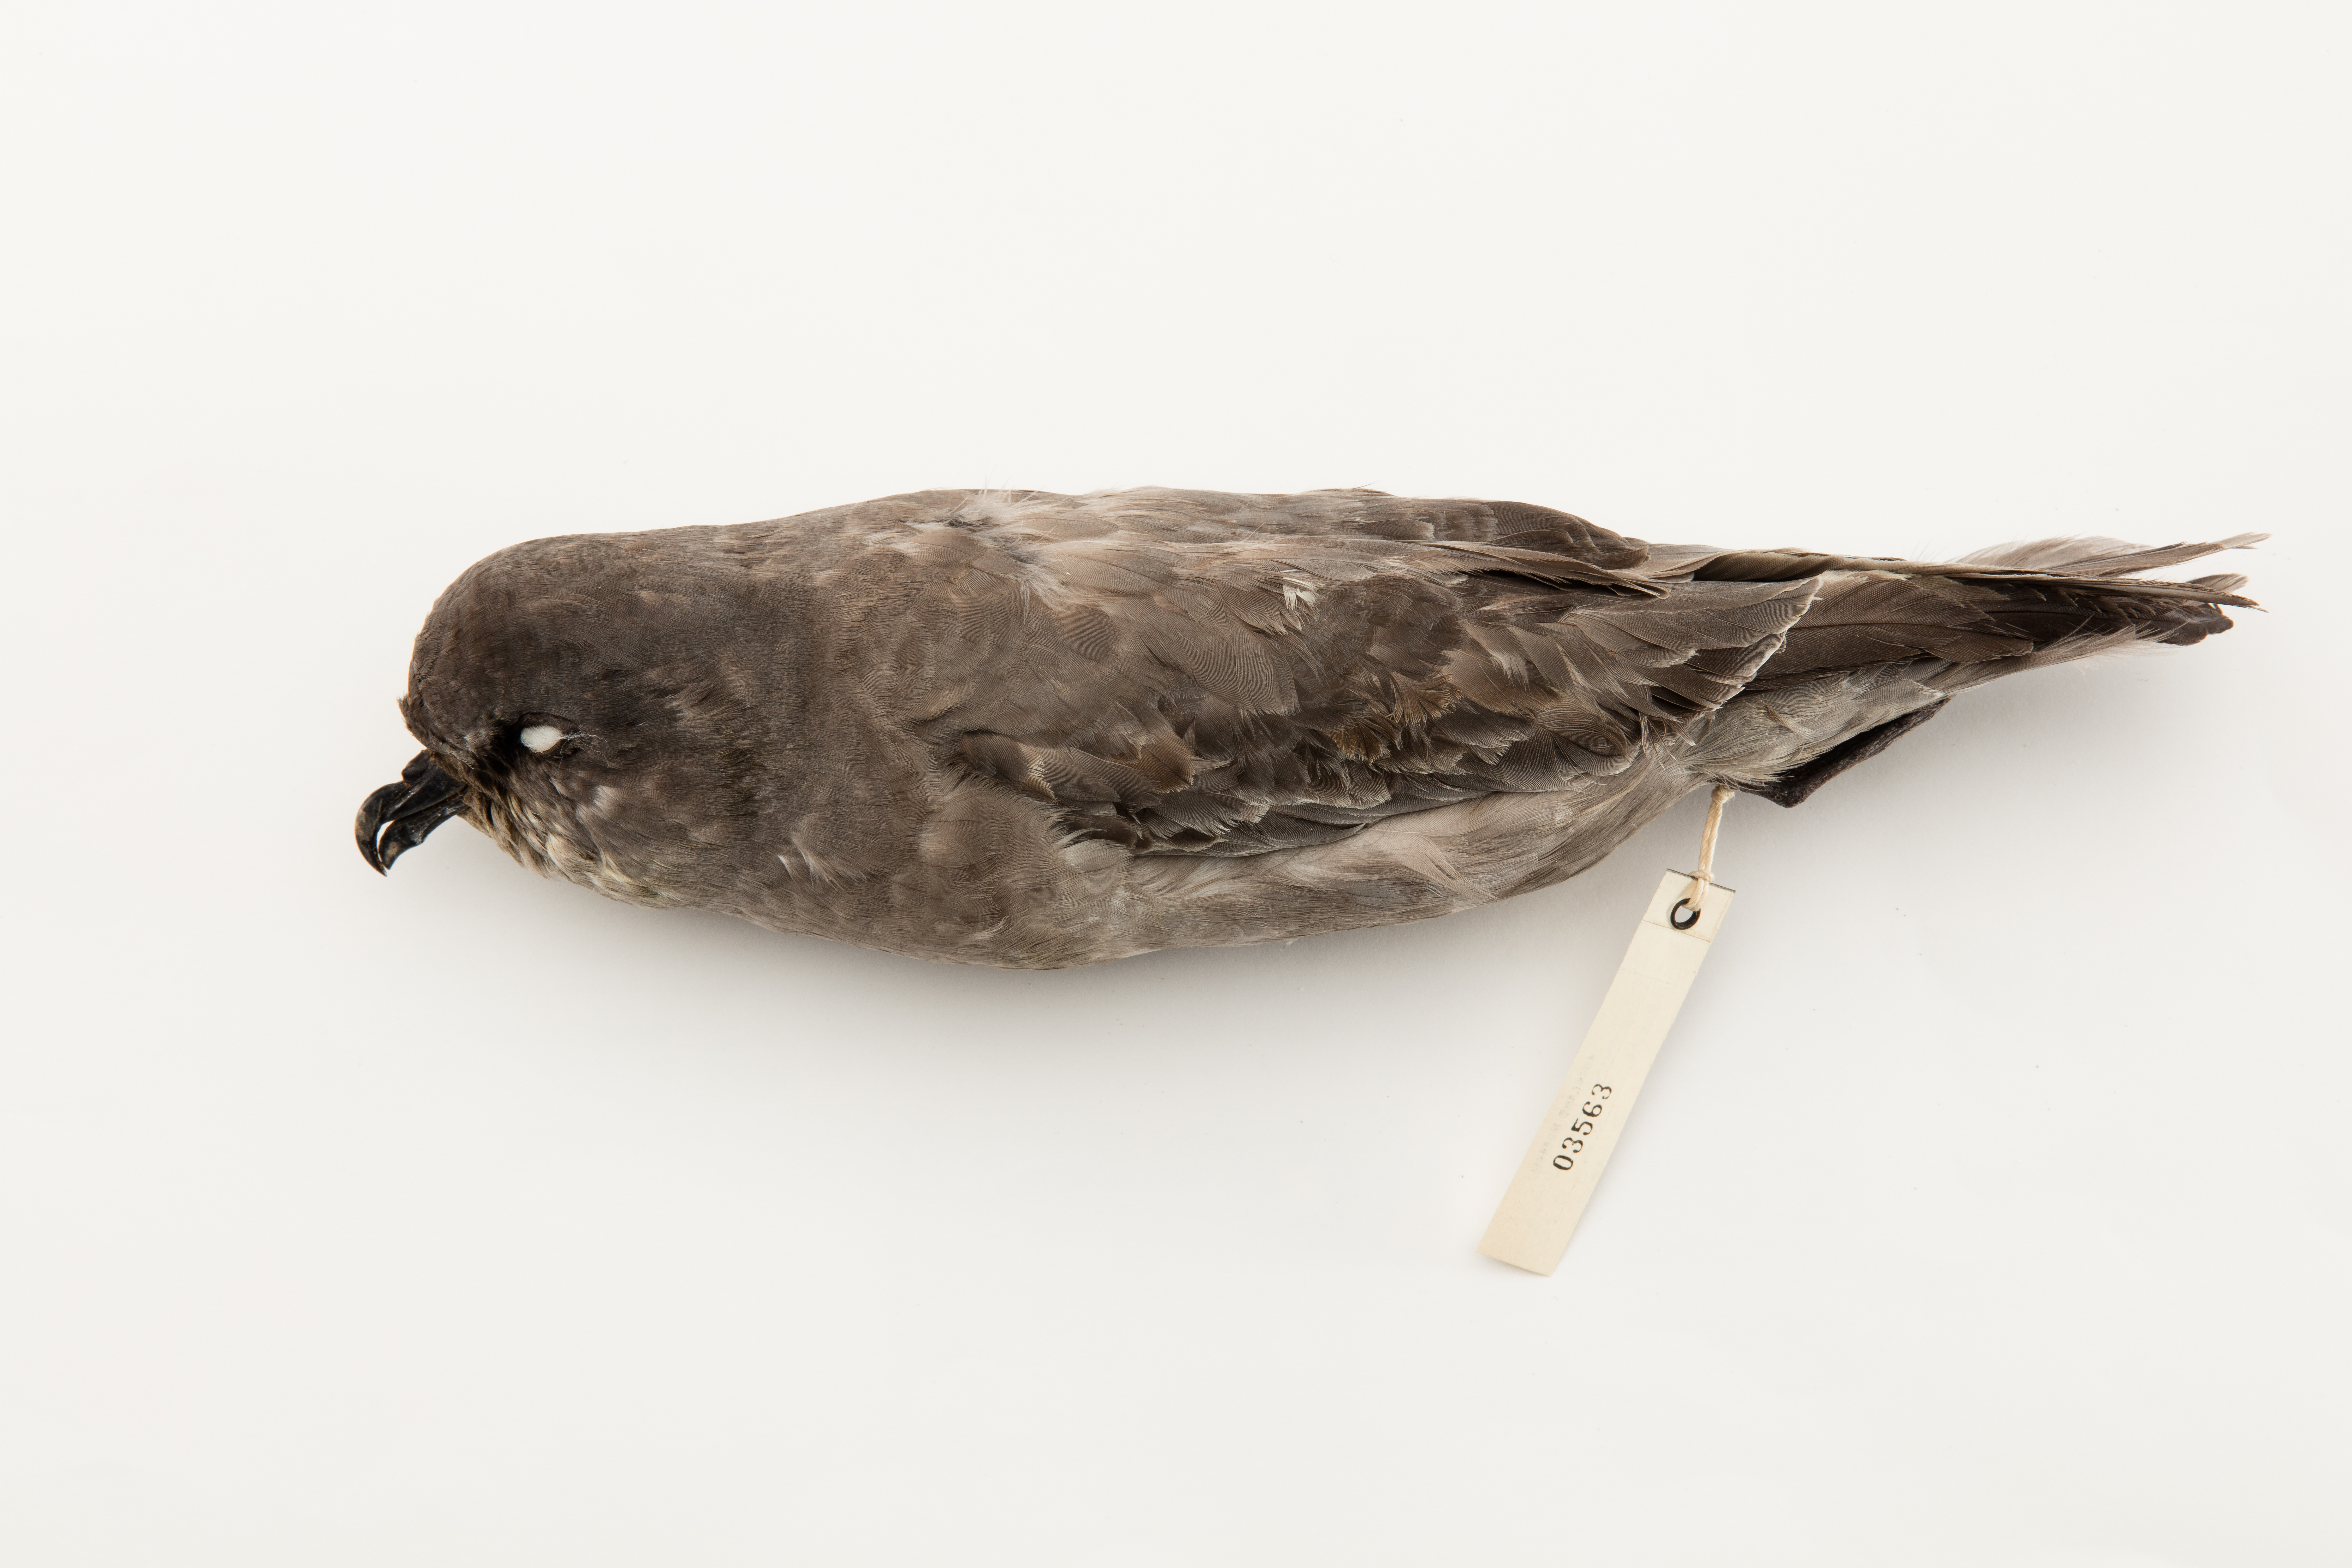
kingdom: Animalia
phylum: Chordata
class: Aves
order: Procellariiformes
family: Procellariidae
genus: Aphrodroma
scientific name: Aphrodroma brevirostris
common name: Kerguelen petrel
